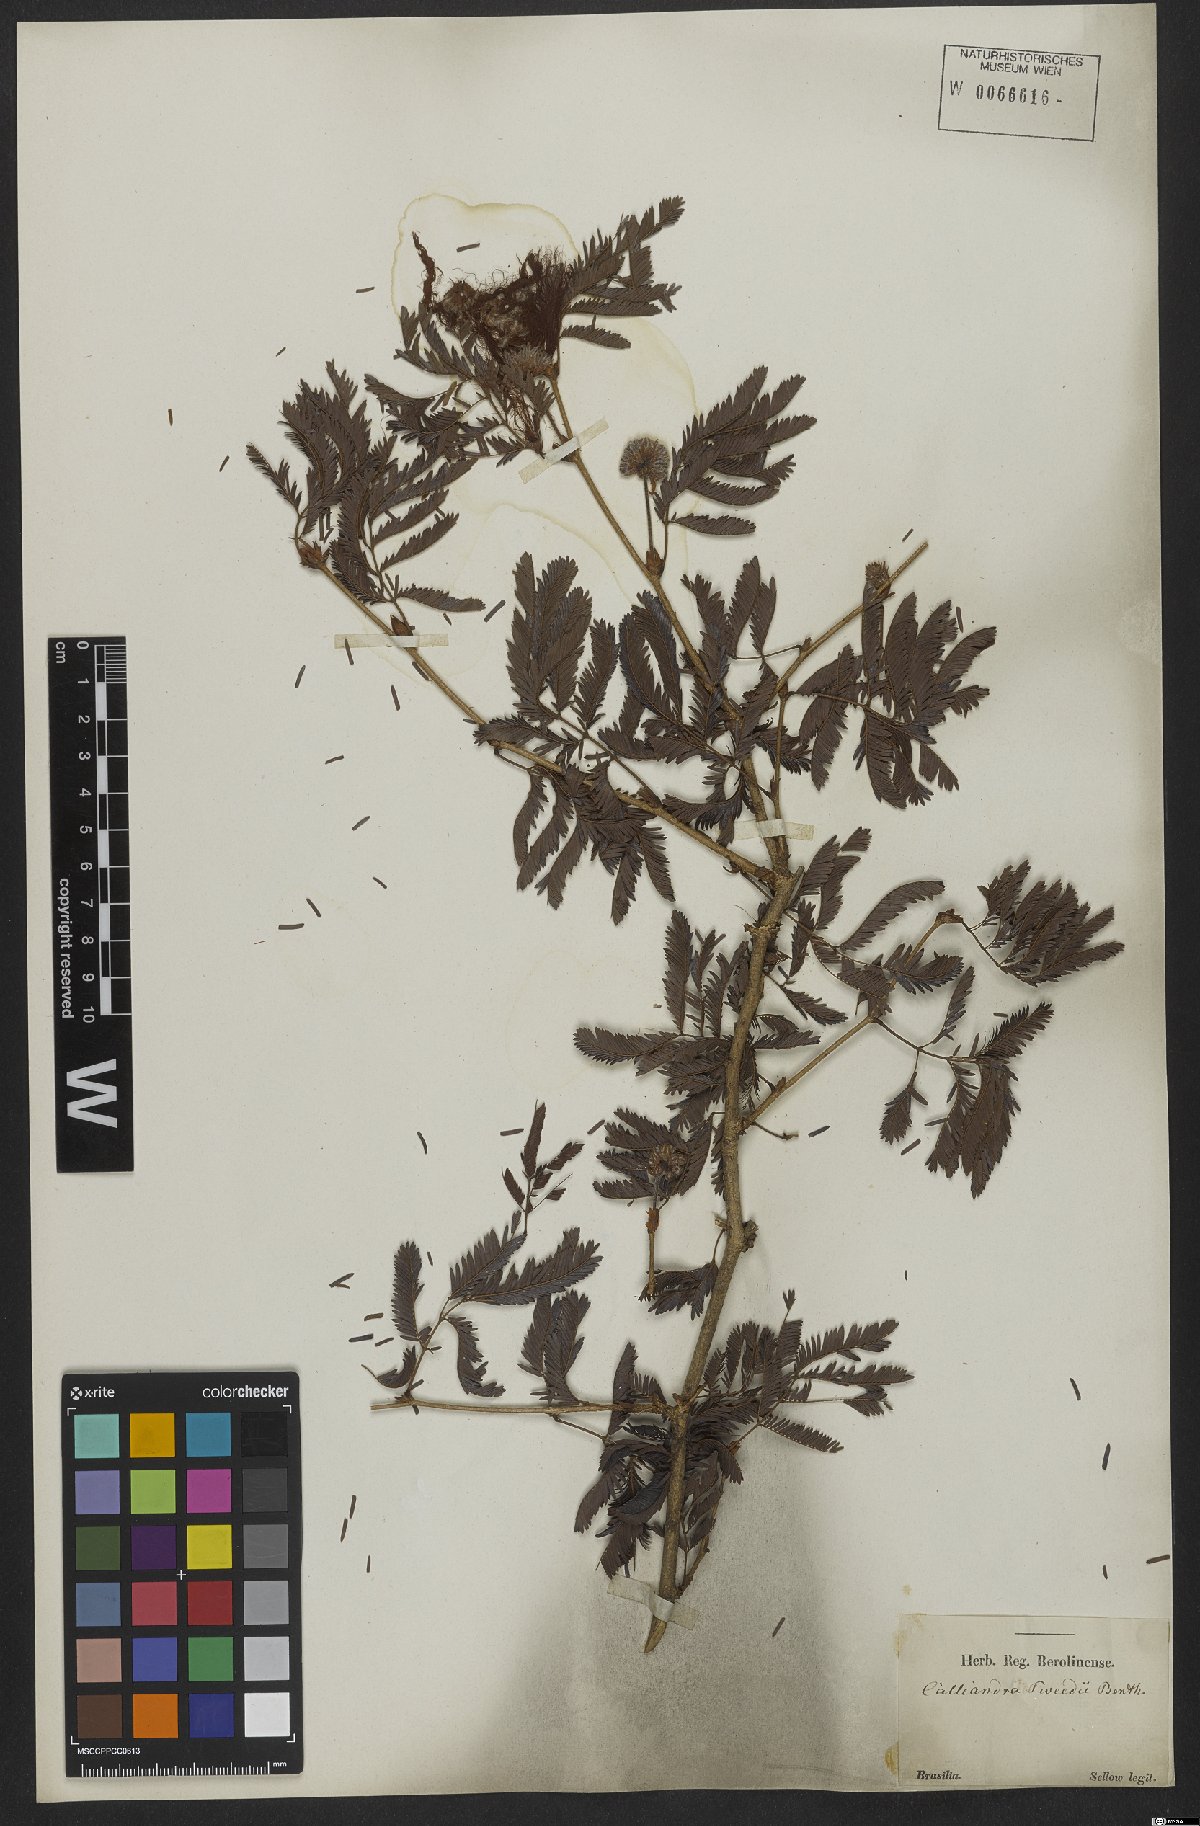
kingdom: Plantae
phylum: Tracheophyta
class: Magnoliopsida
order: Fabales
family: Fabaceae
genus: Calliandra
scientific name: Calliandra tweedii
